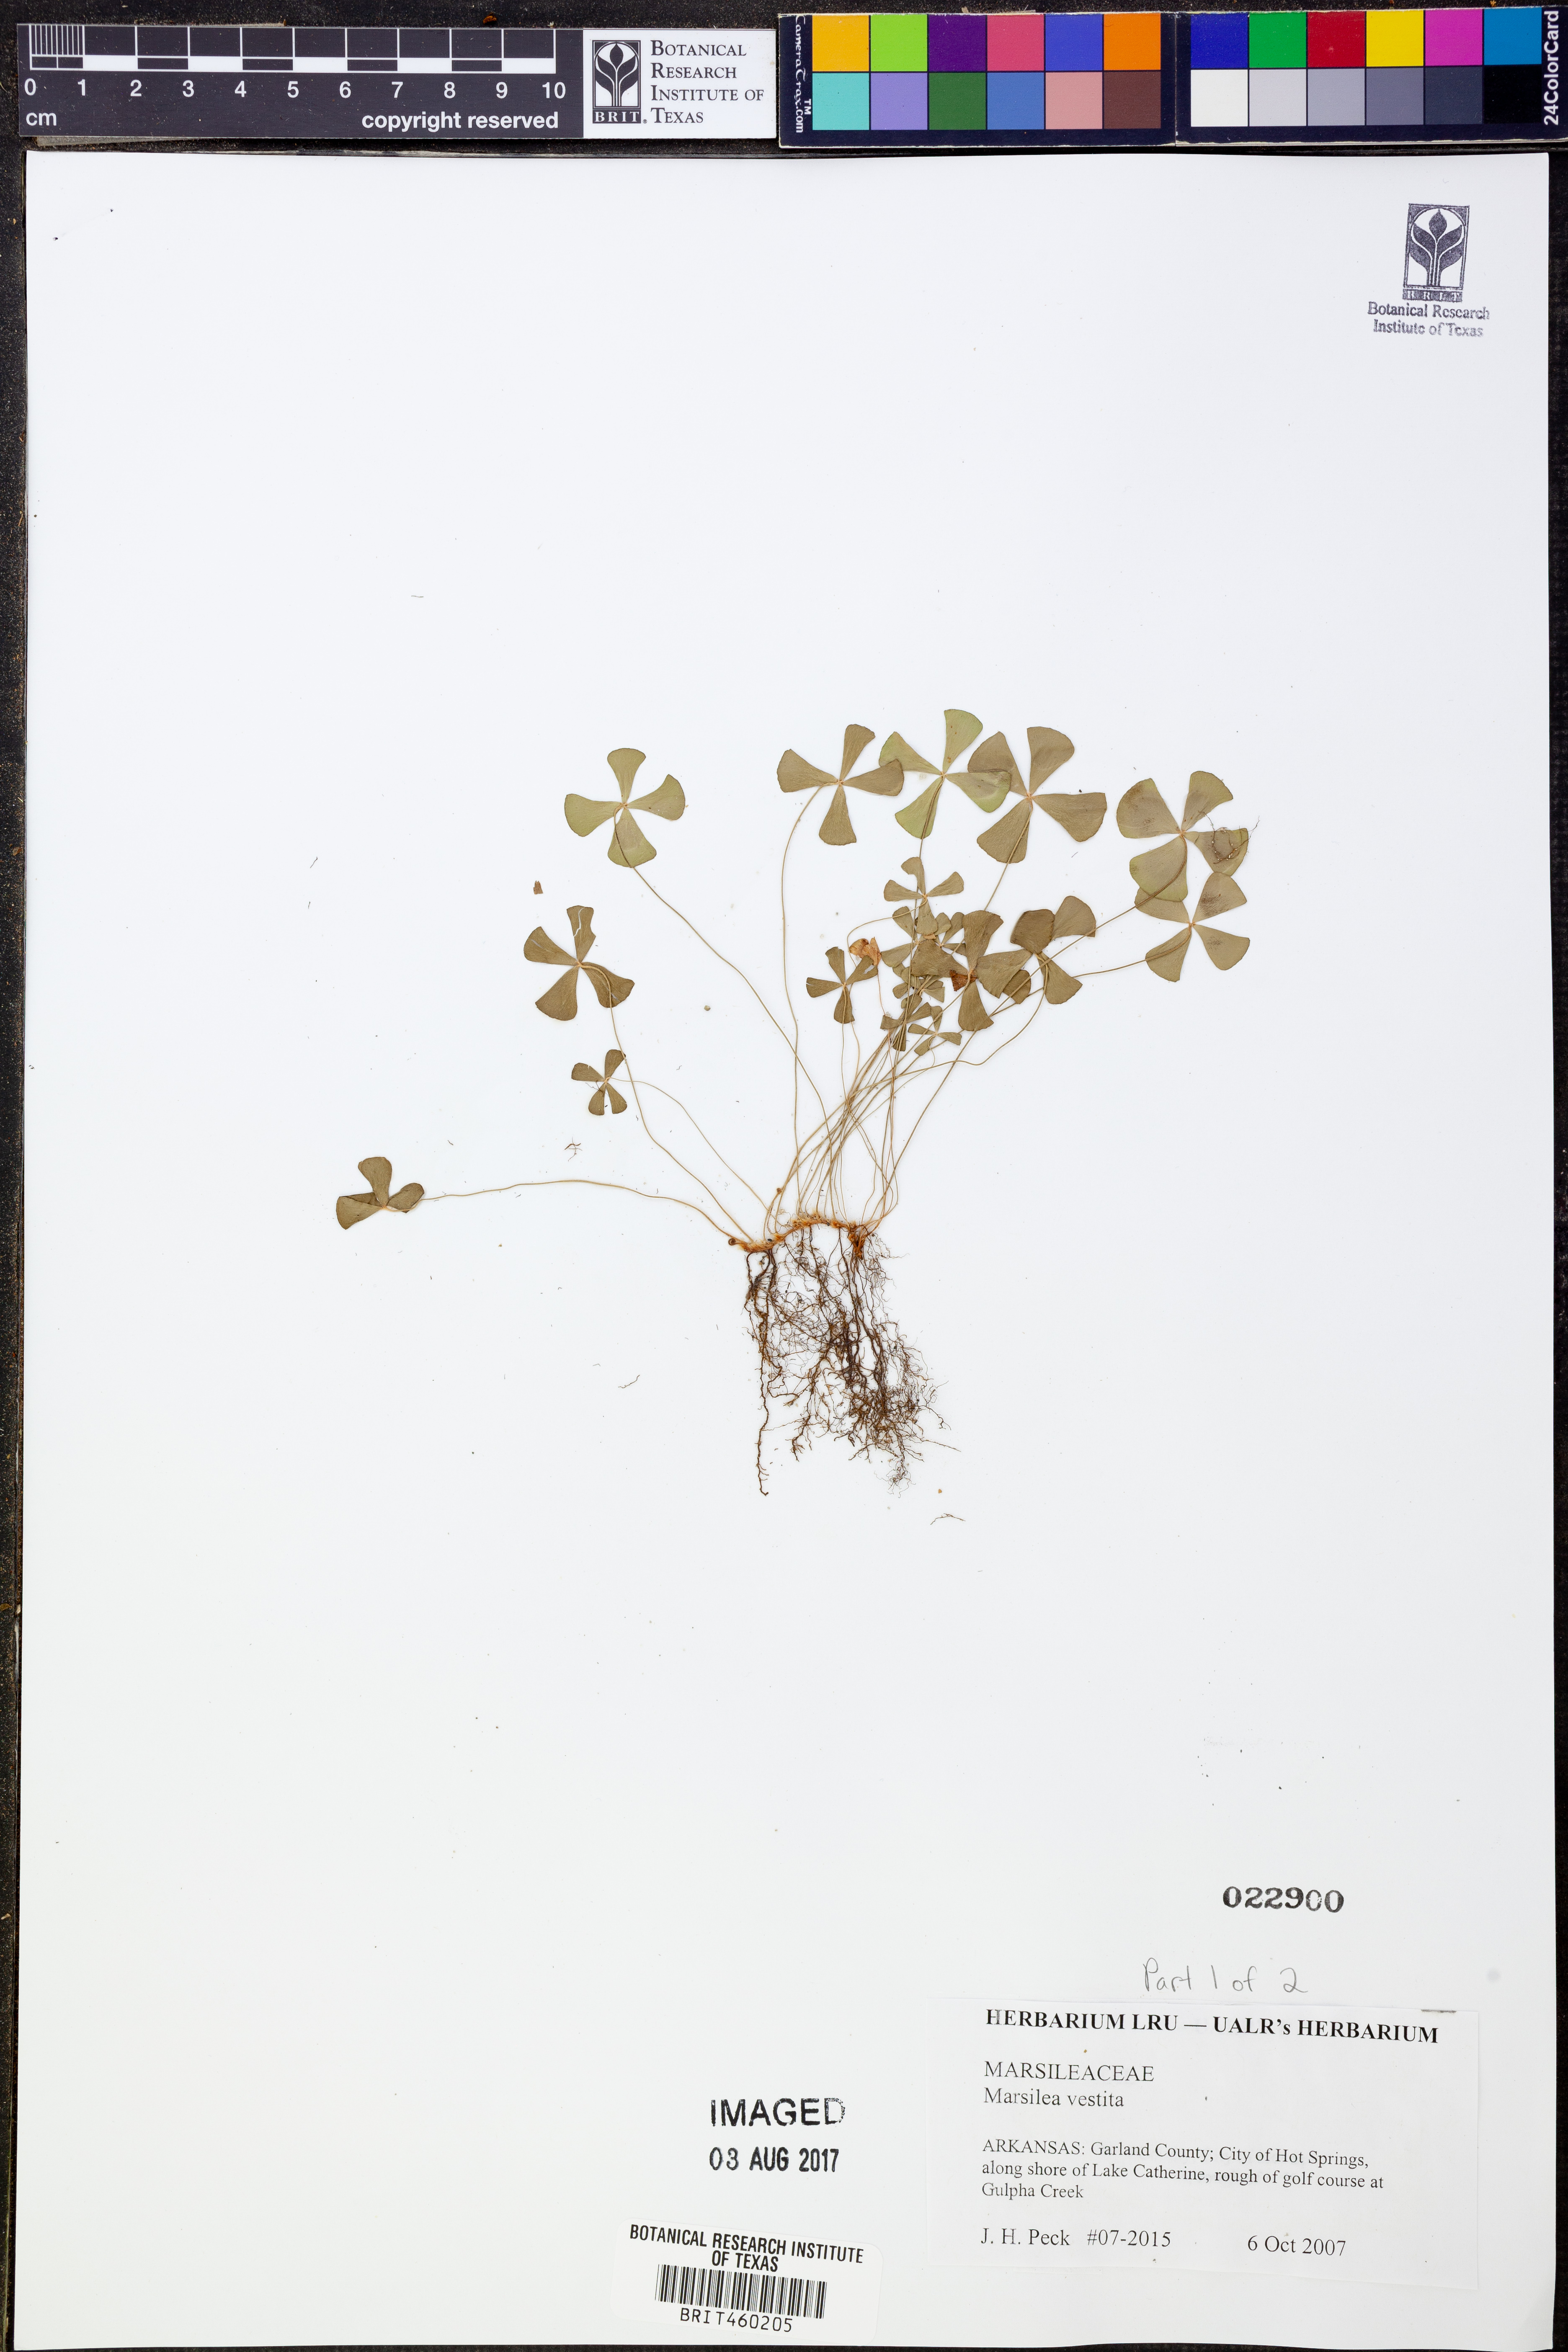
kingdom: Plantae
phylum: Tracheophyta
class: Polypodiopsida
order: Salviniales
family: Marsileaceae
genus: Marsilea
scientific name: Marsilea vestita
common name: Hooked-pepperwort
